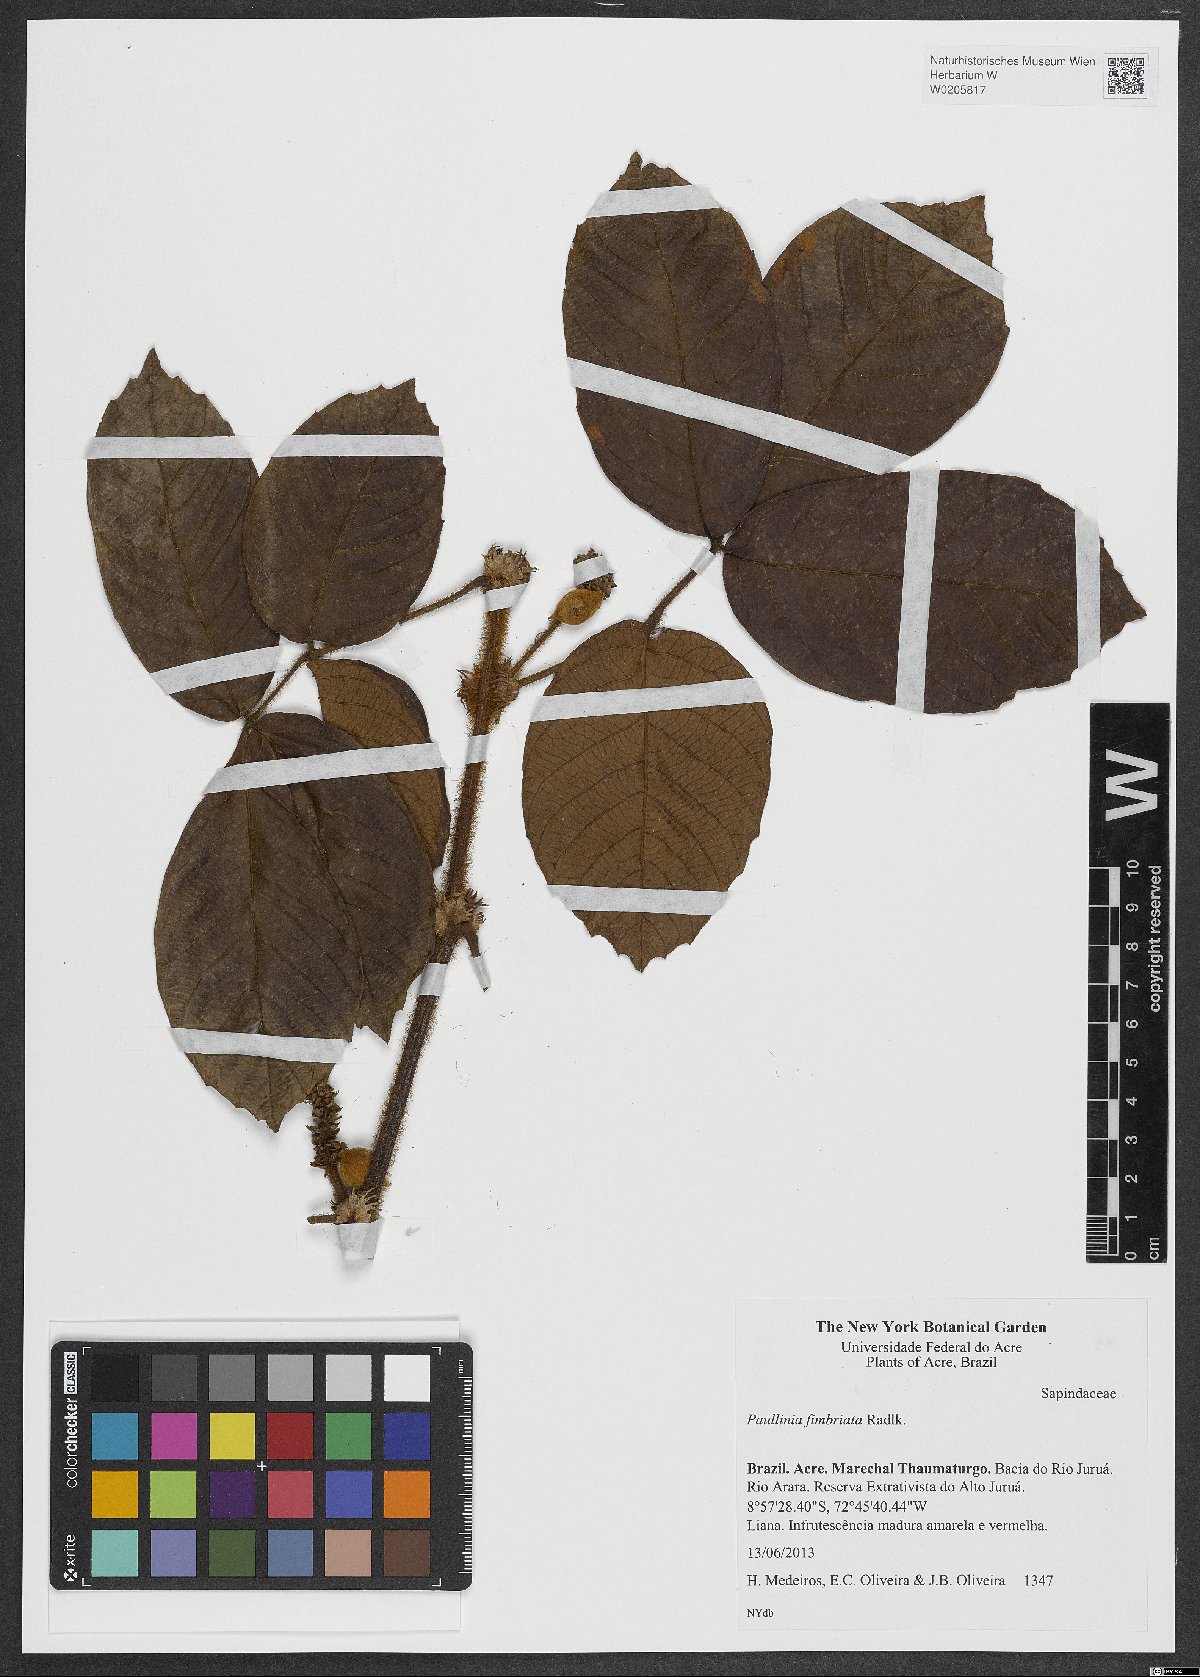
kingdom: Plantae
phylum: Tracheophyta
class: Magnoliopsida
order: Sapindales
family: Sapindaceae
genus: Paullinia
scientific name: Paullinia rugosa
